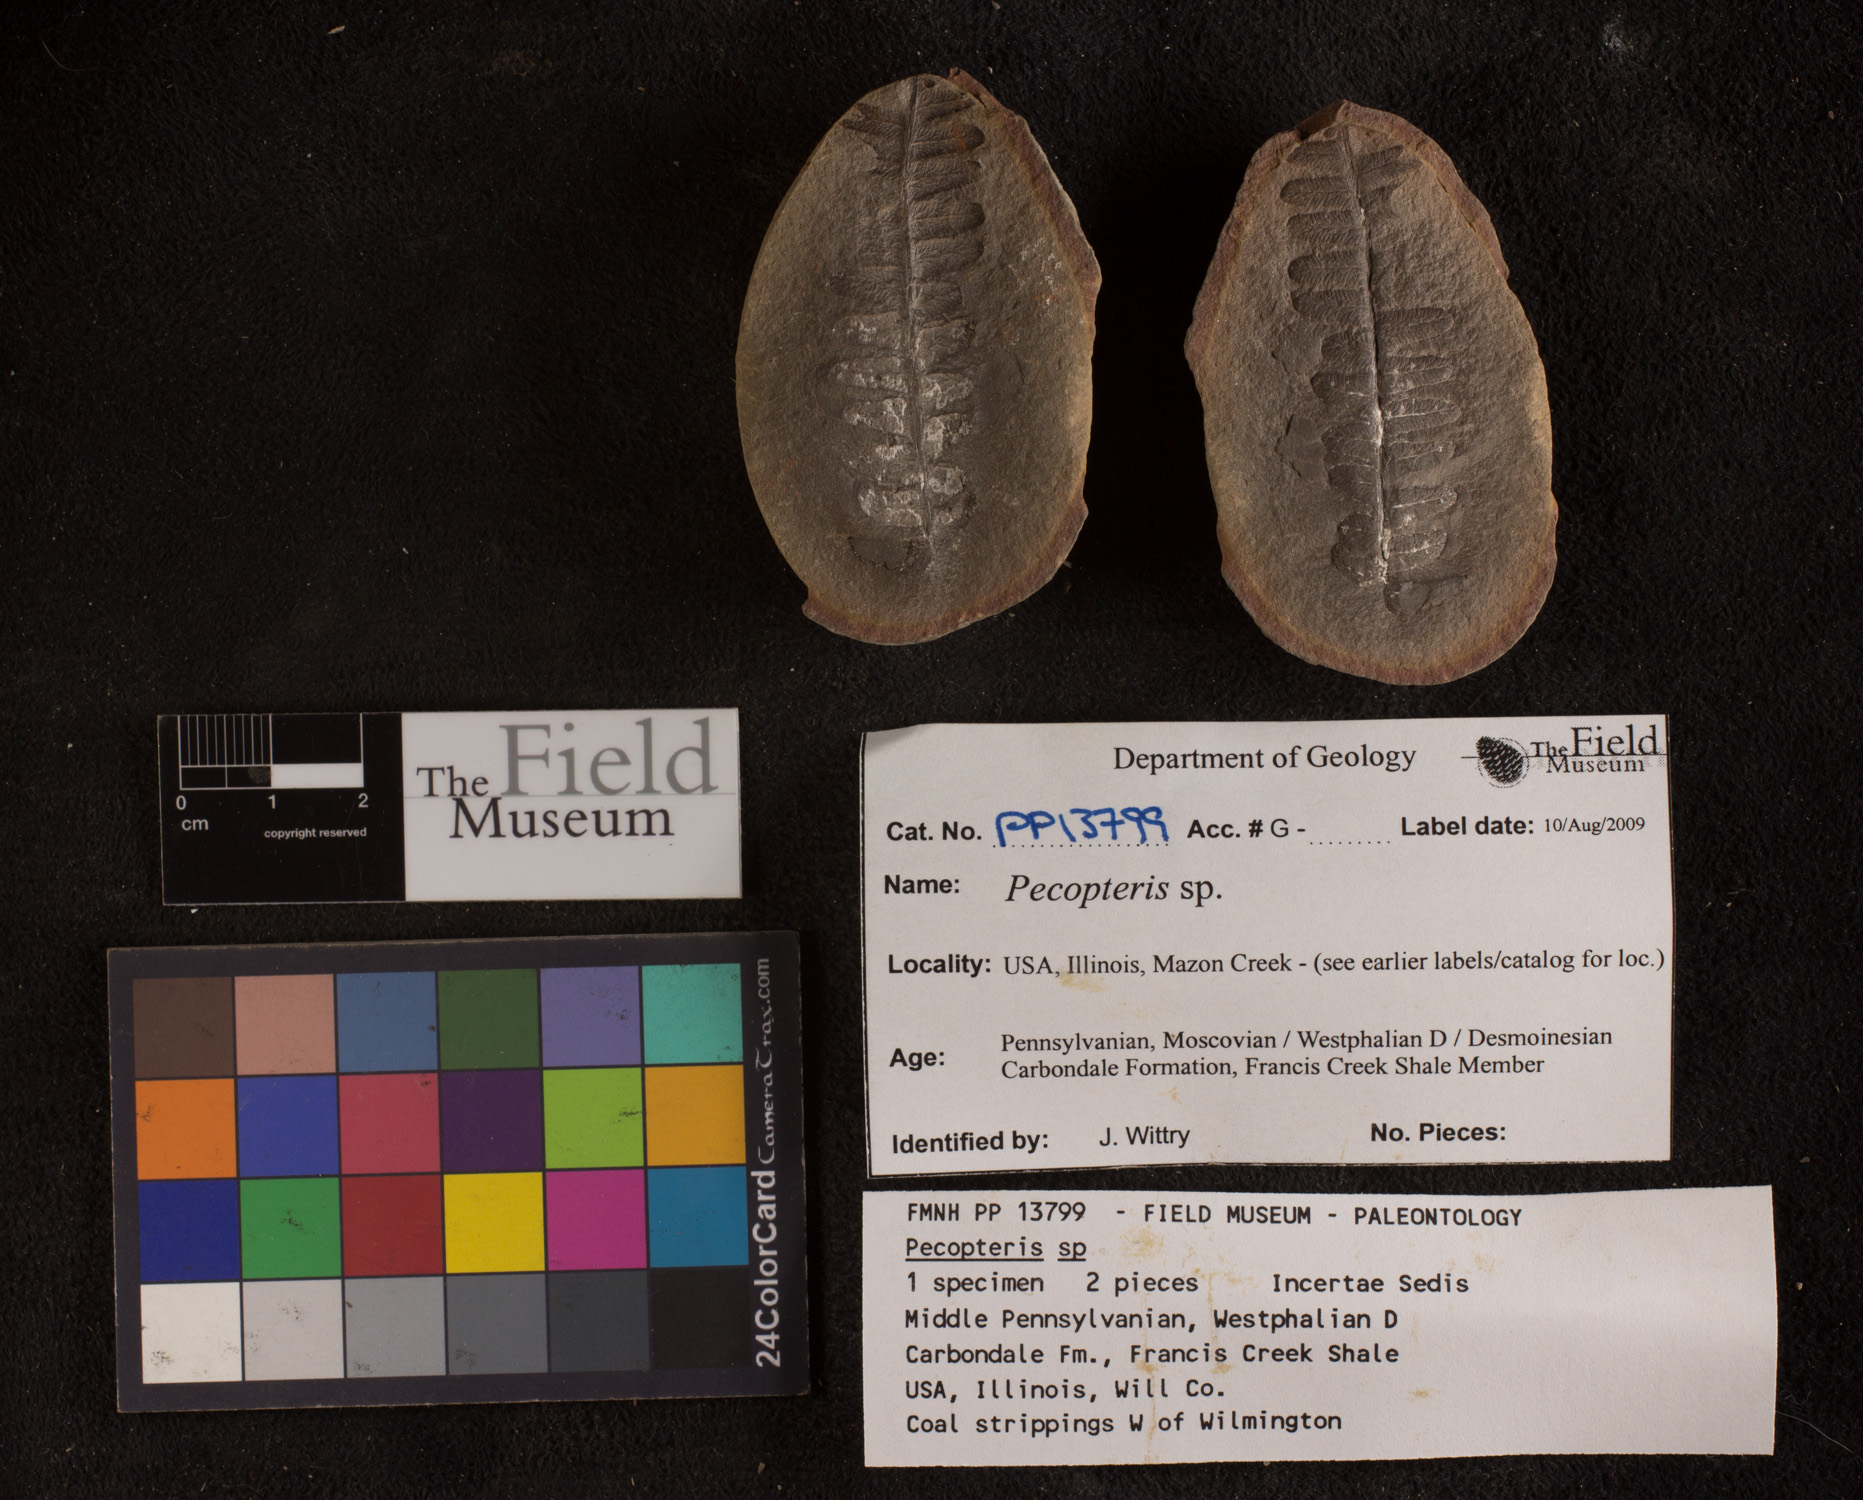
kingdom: Plantae
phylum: Tracheophyta
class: Polypodiopsida
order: Marattiales
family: Asterothecaceae
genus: Pecopteris
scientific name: Pecopteris
